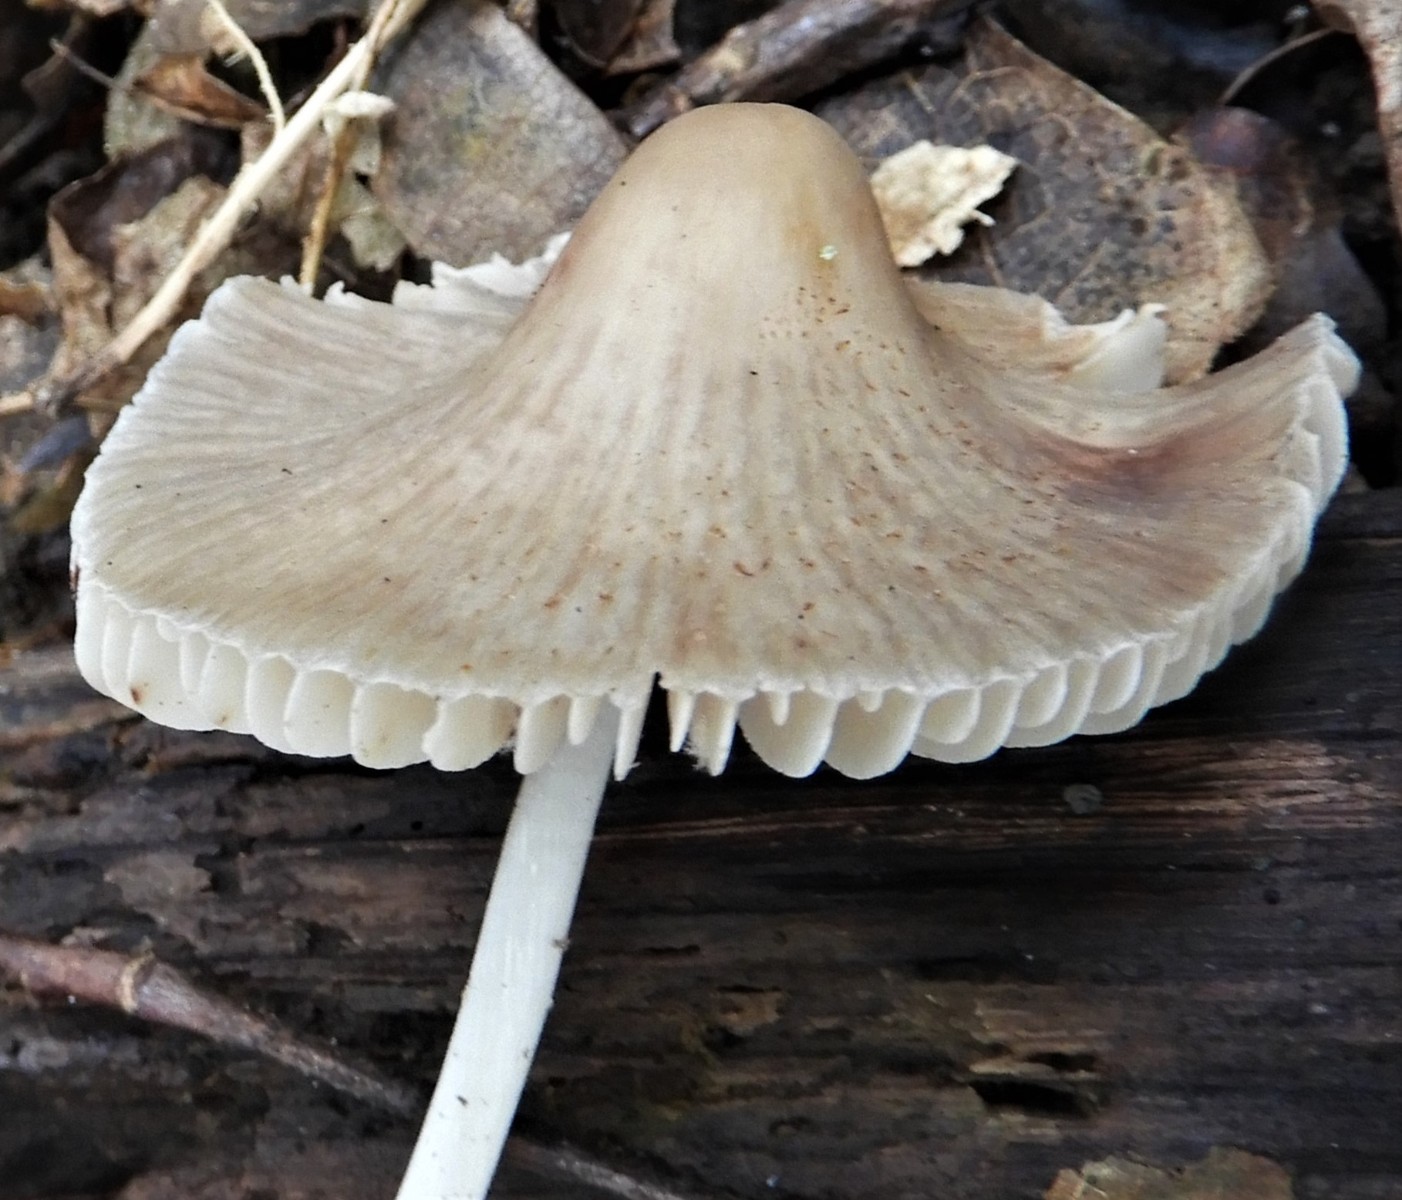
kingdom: Fungi
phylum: Basidiomycota
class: Agaricomycetes
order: Agaricales
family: Mycenaceae
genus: Mycena
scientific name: Mycena
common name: huesvamp
